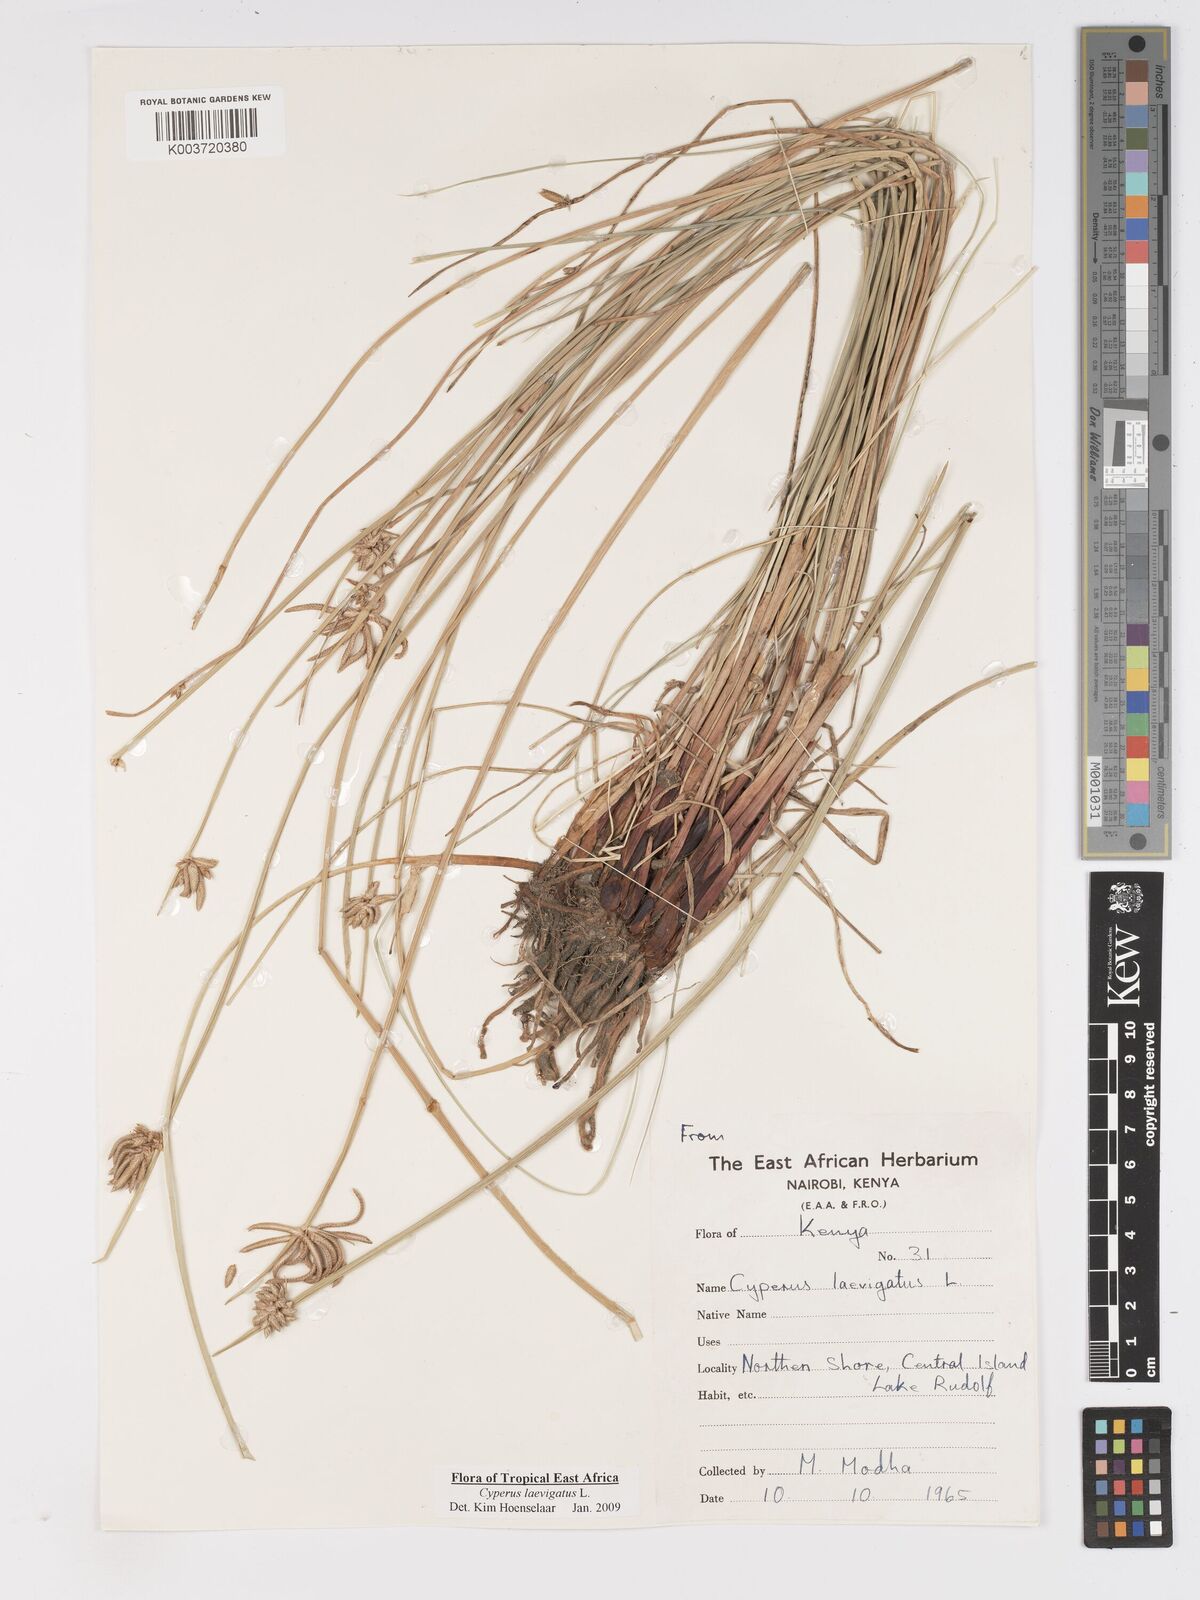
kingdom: Plantae
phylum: Tracheophyta
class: Liliopsida
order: Poales
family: Cyperaceae
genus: Cyperus
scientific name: Cyperus laevigatus
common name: Smooth flat sedge
